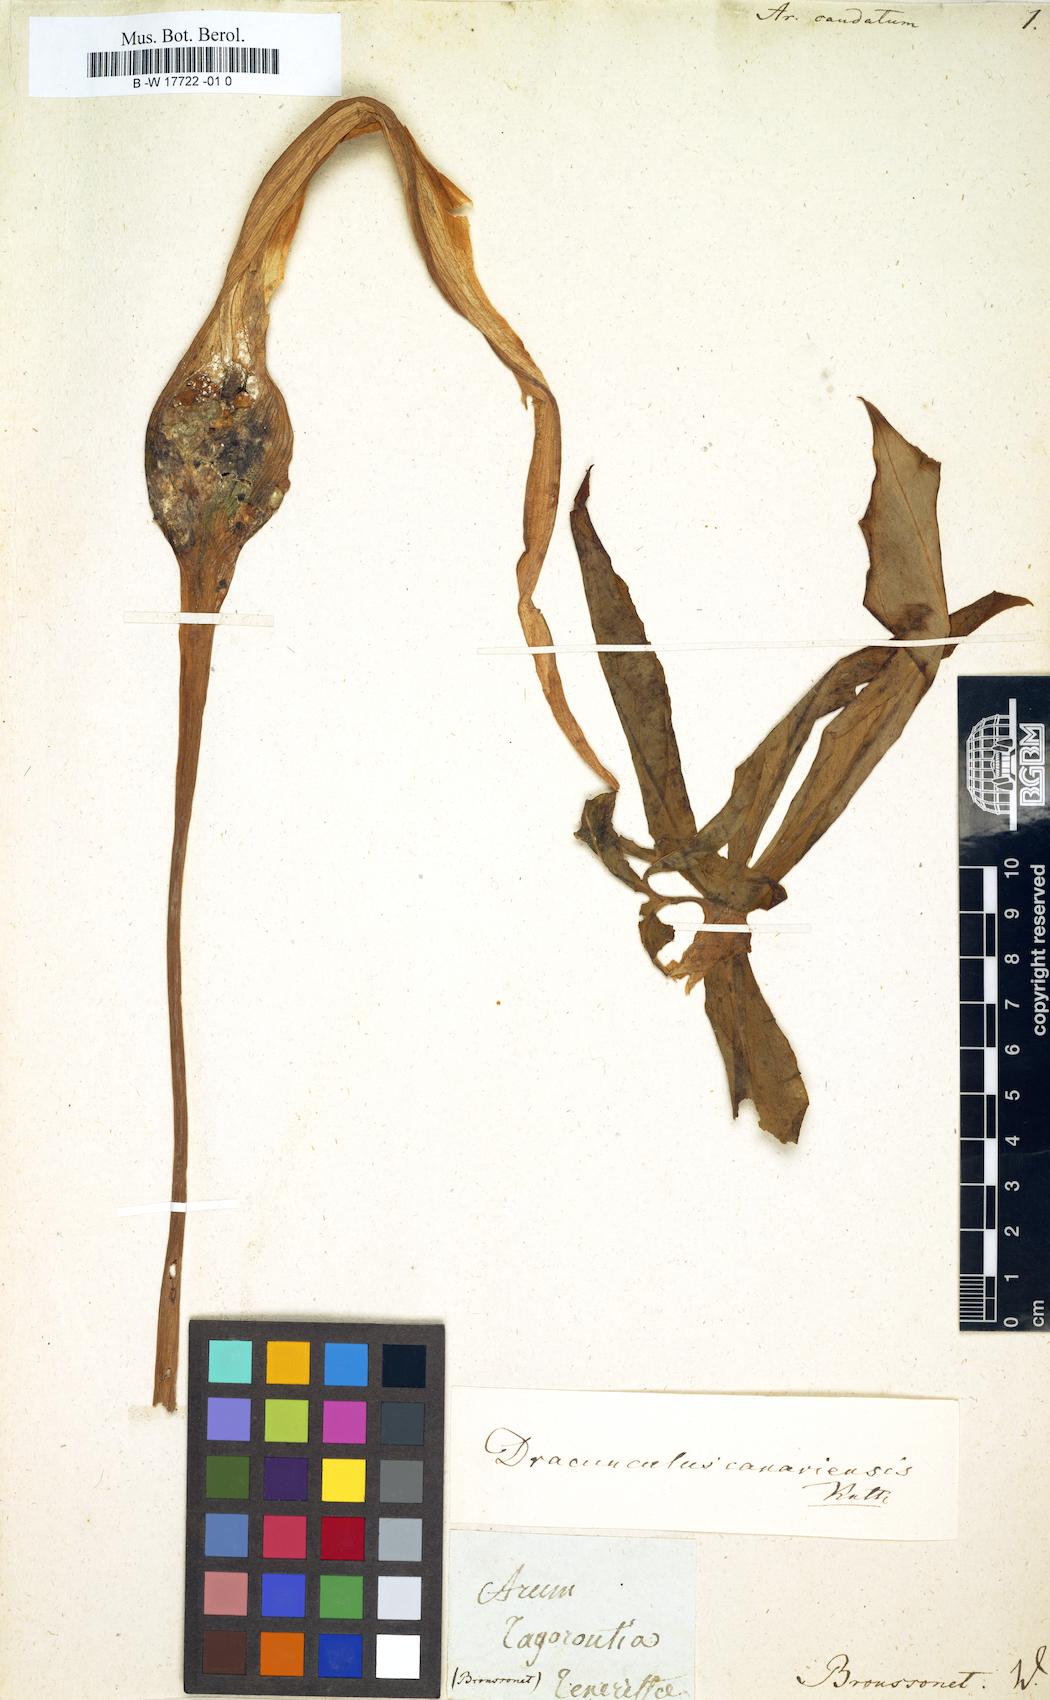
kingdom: Plantae
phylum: Tracheophyta
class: Liliopsida
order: Alismatales
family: Araceae
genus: Arum
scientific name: Arum
